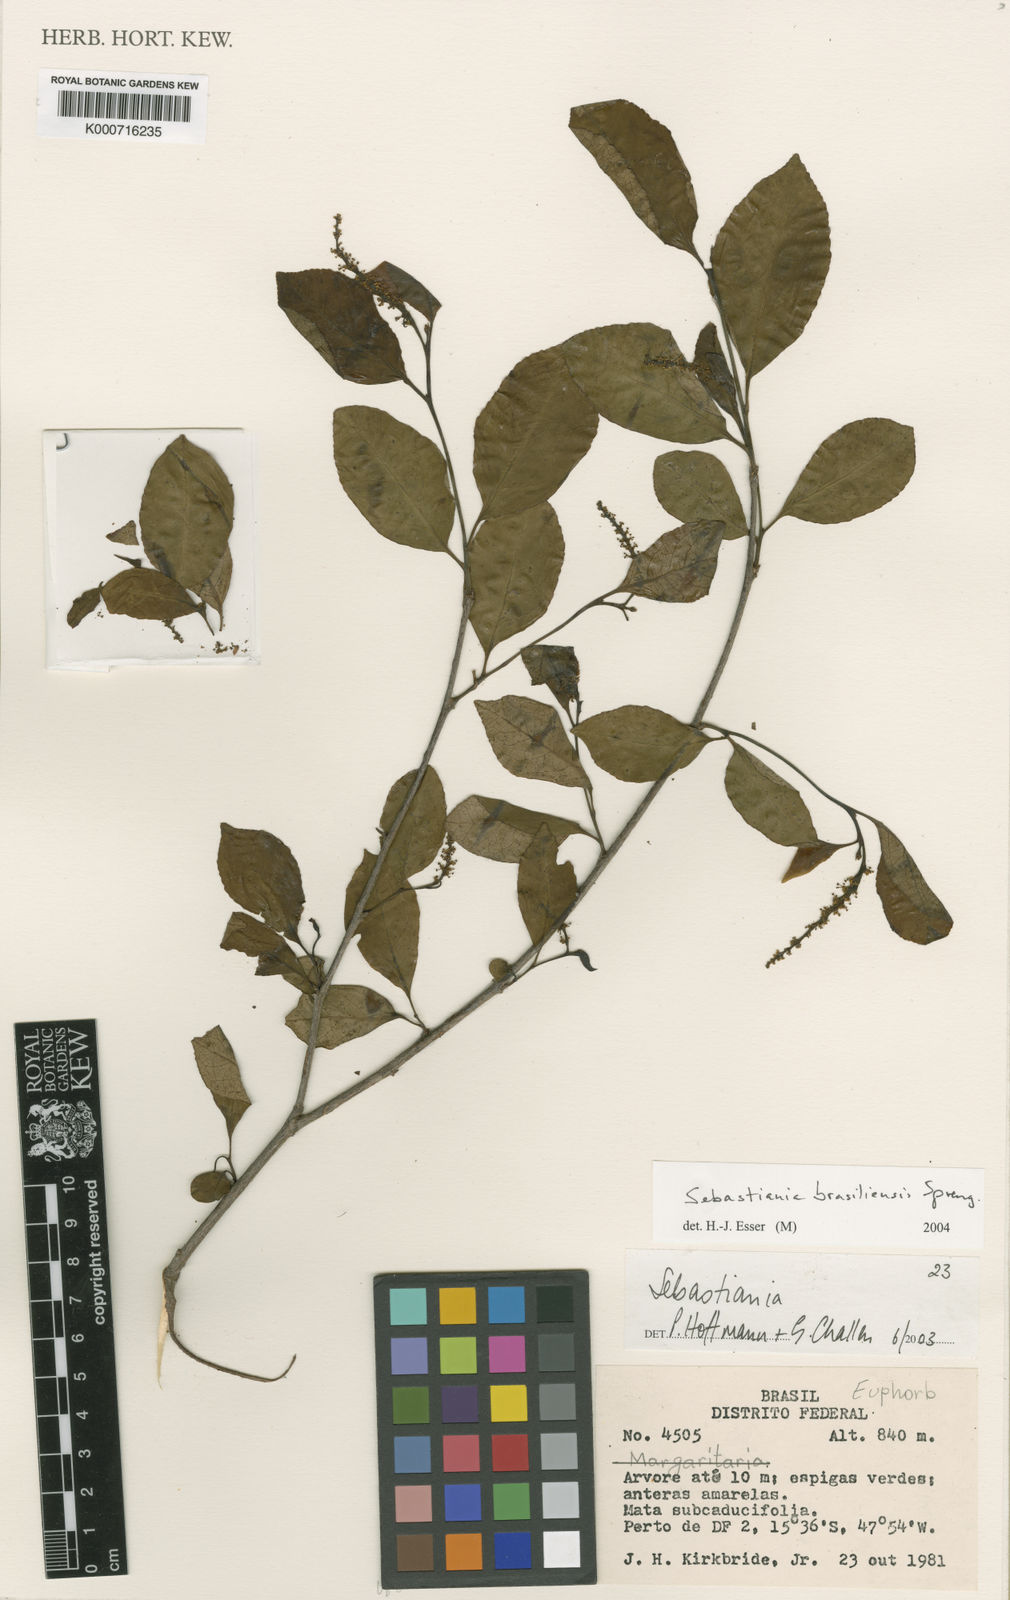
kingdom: Plantae
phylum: Tracheophyta
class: Magnoliopsida
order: Malpighiales
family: Euphorbiaceae
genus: Sebastiania
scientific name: Sebastiania brasiliensis
